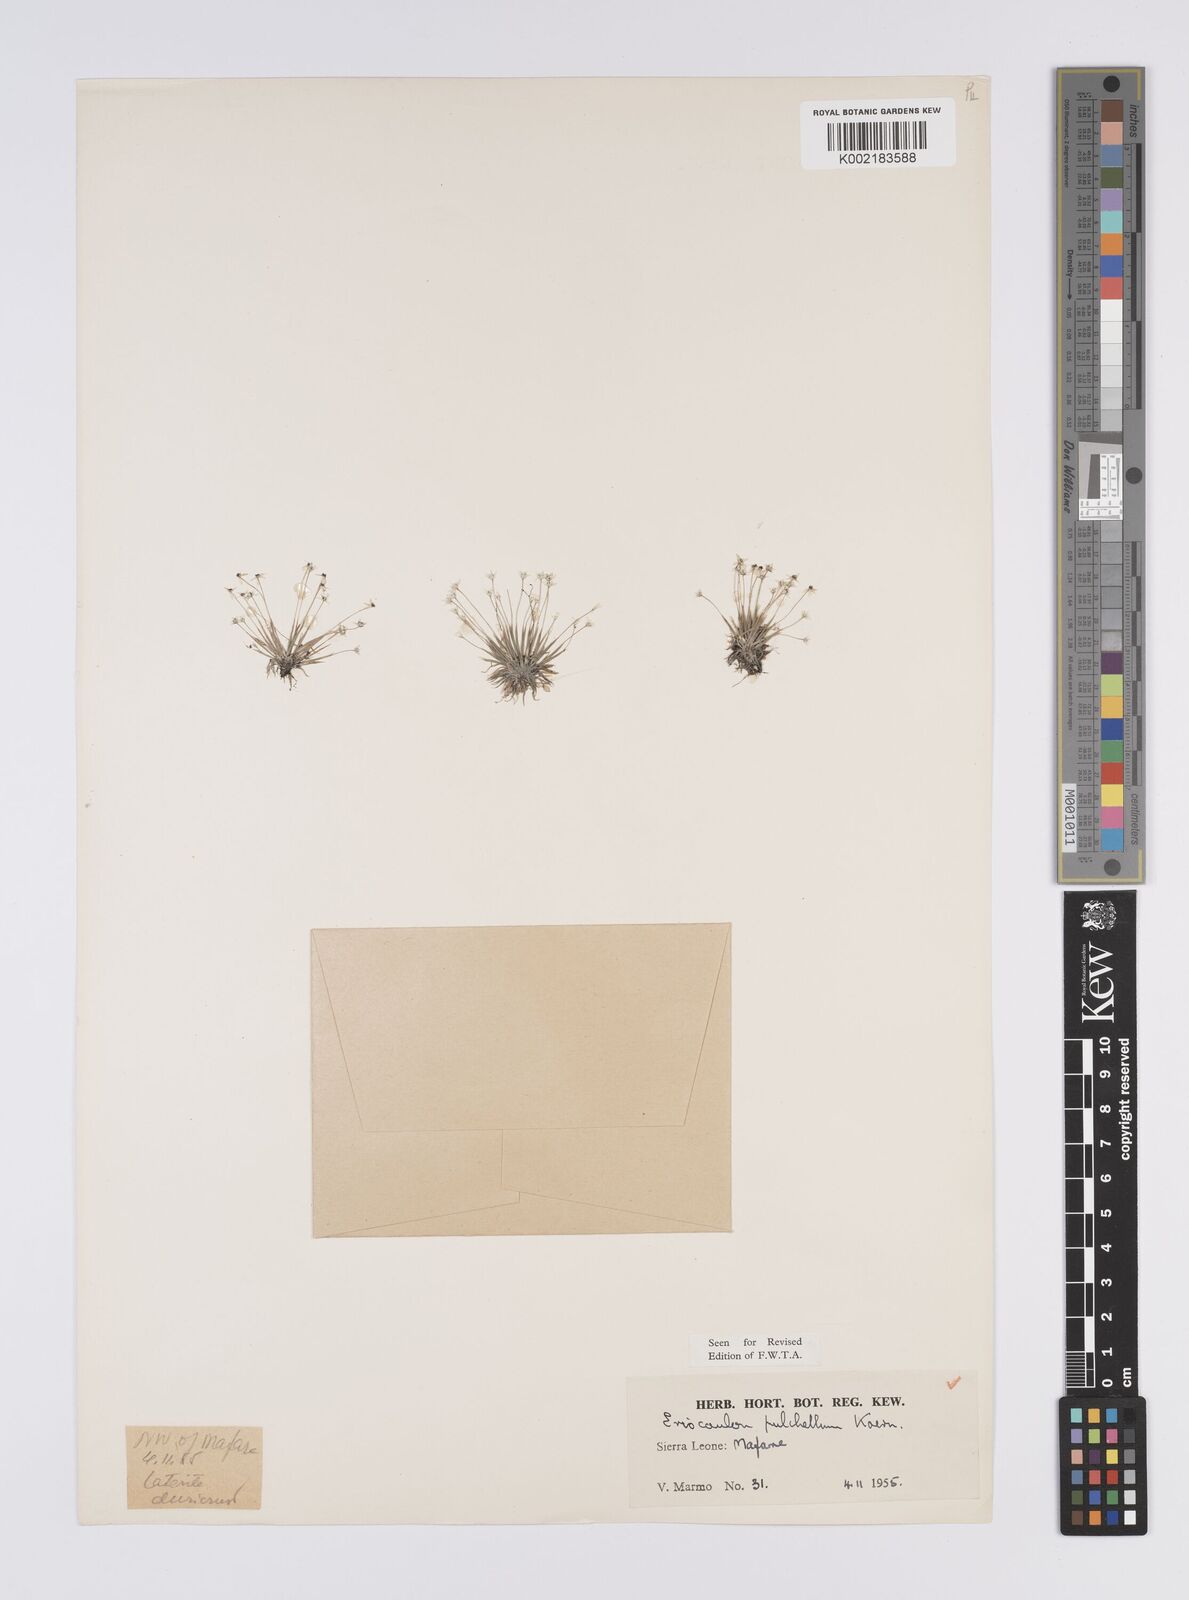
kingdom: Plantae
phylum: Tracheophyta
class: Liliopsida
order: Poales
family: Eriocaulaceae
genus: Eriocaulon
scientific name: Eriocaulon pulchellum
